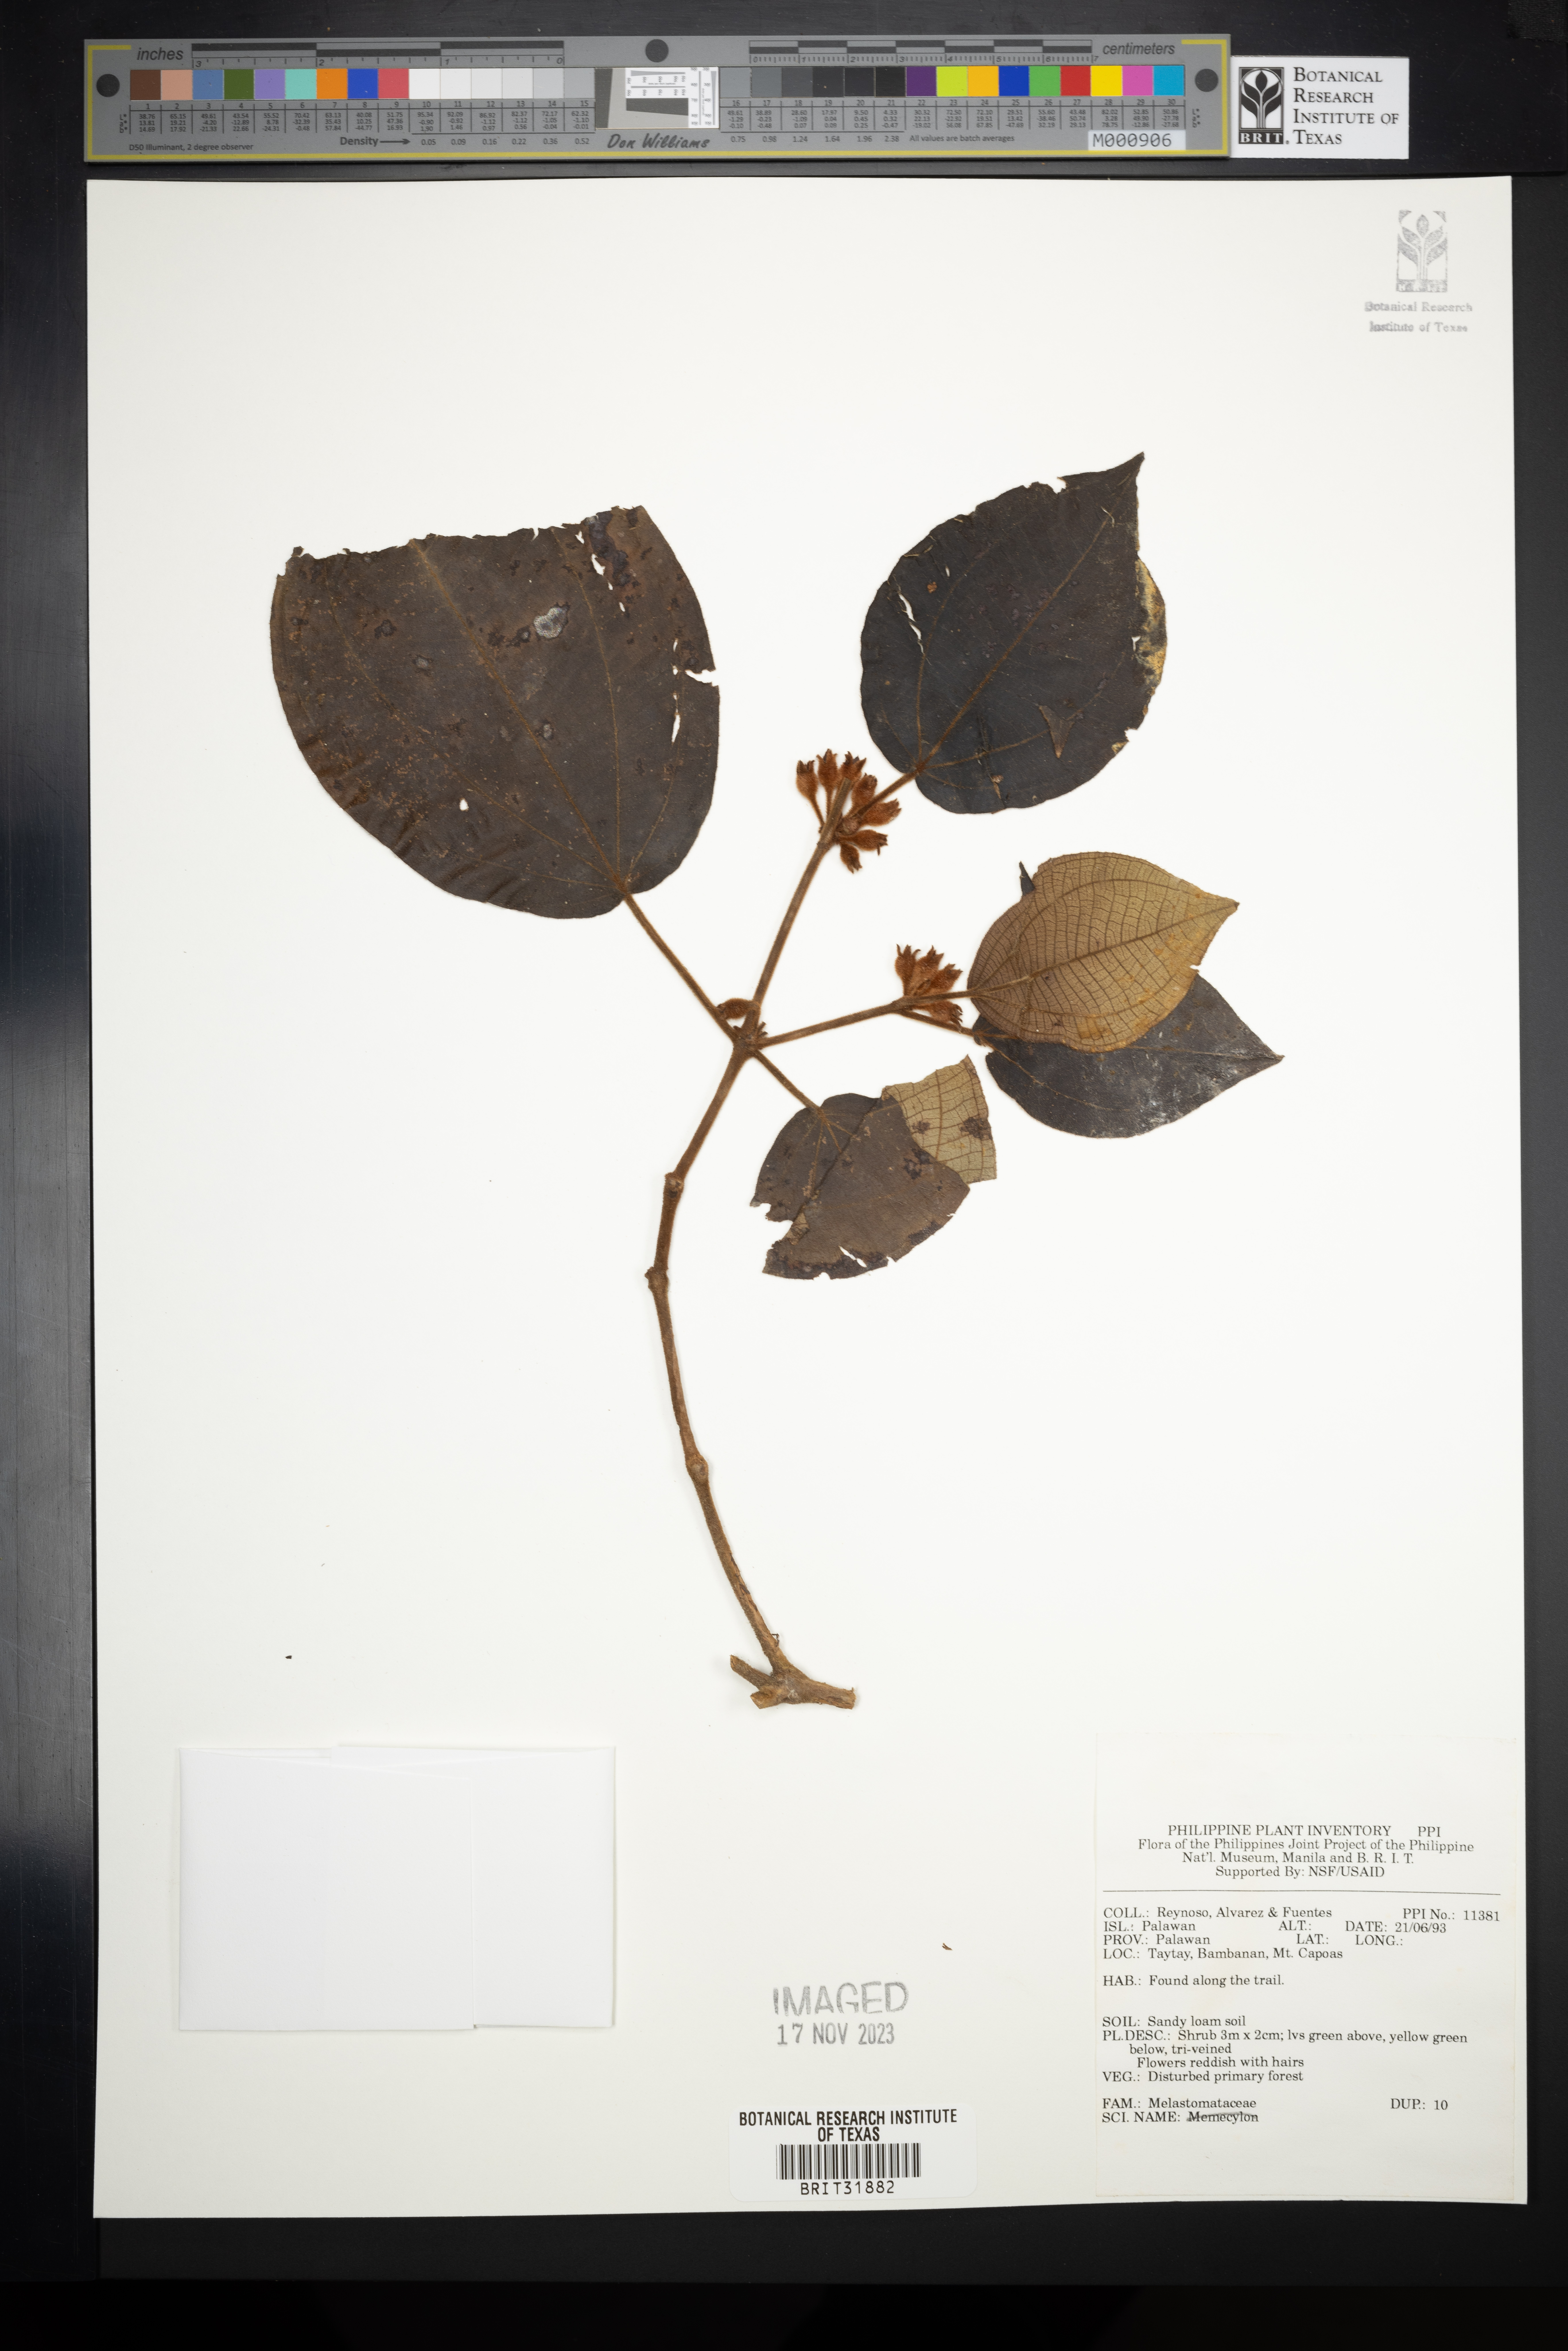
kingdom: Plantae
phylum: Tracheophyta
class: Magnoliopsida
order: Myrtales
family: Melastomataceae
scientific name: Melastomataceae
